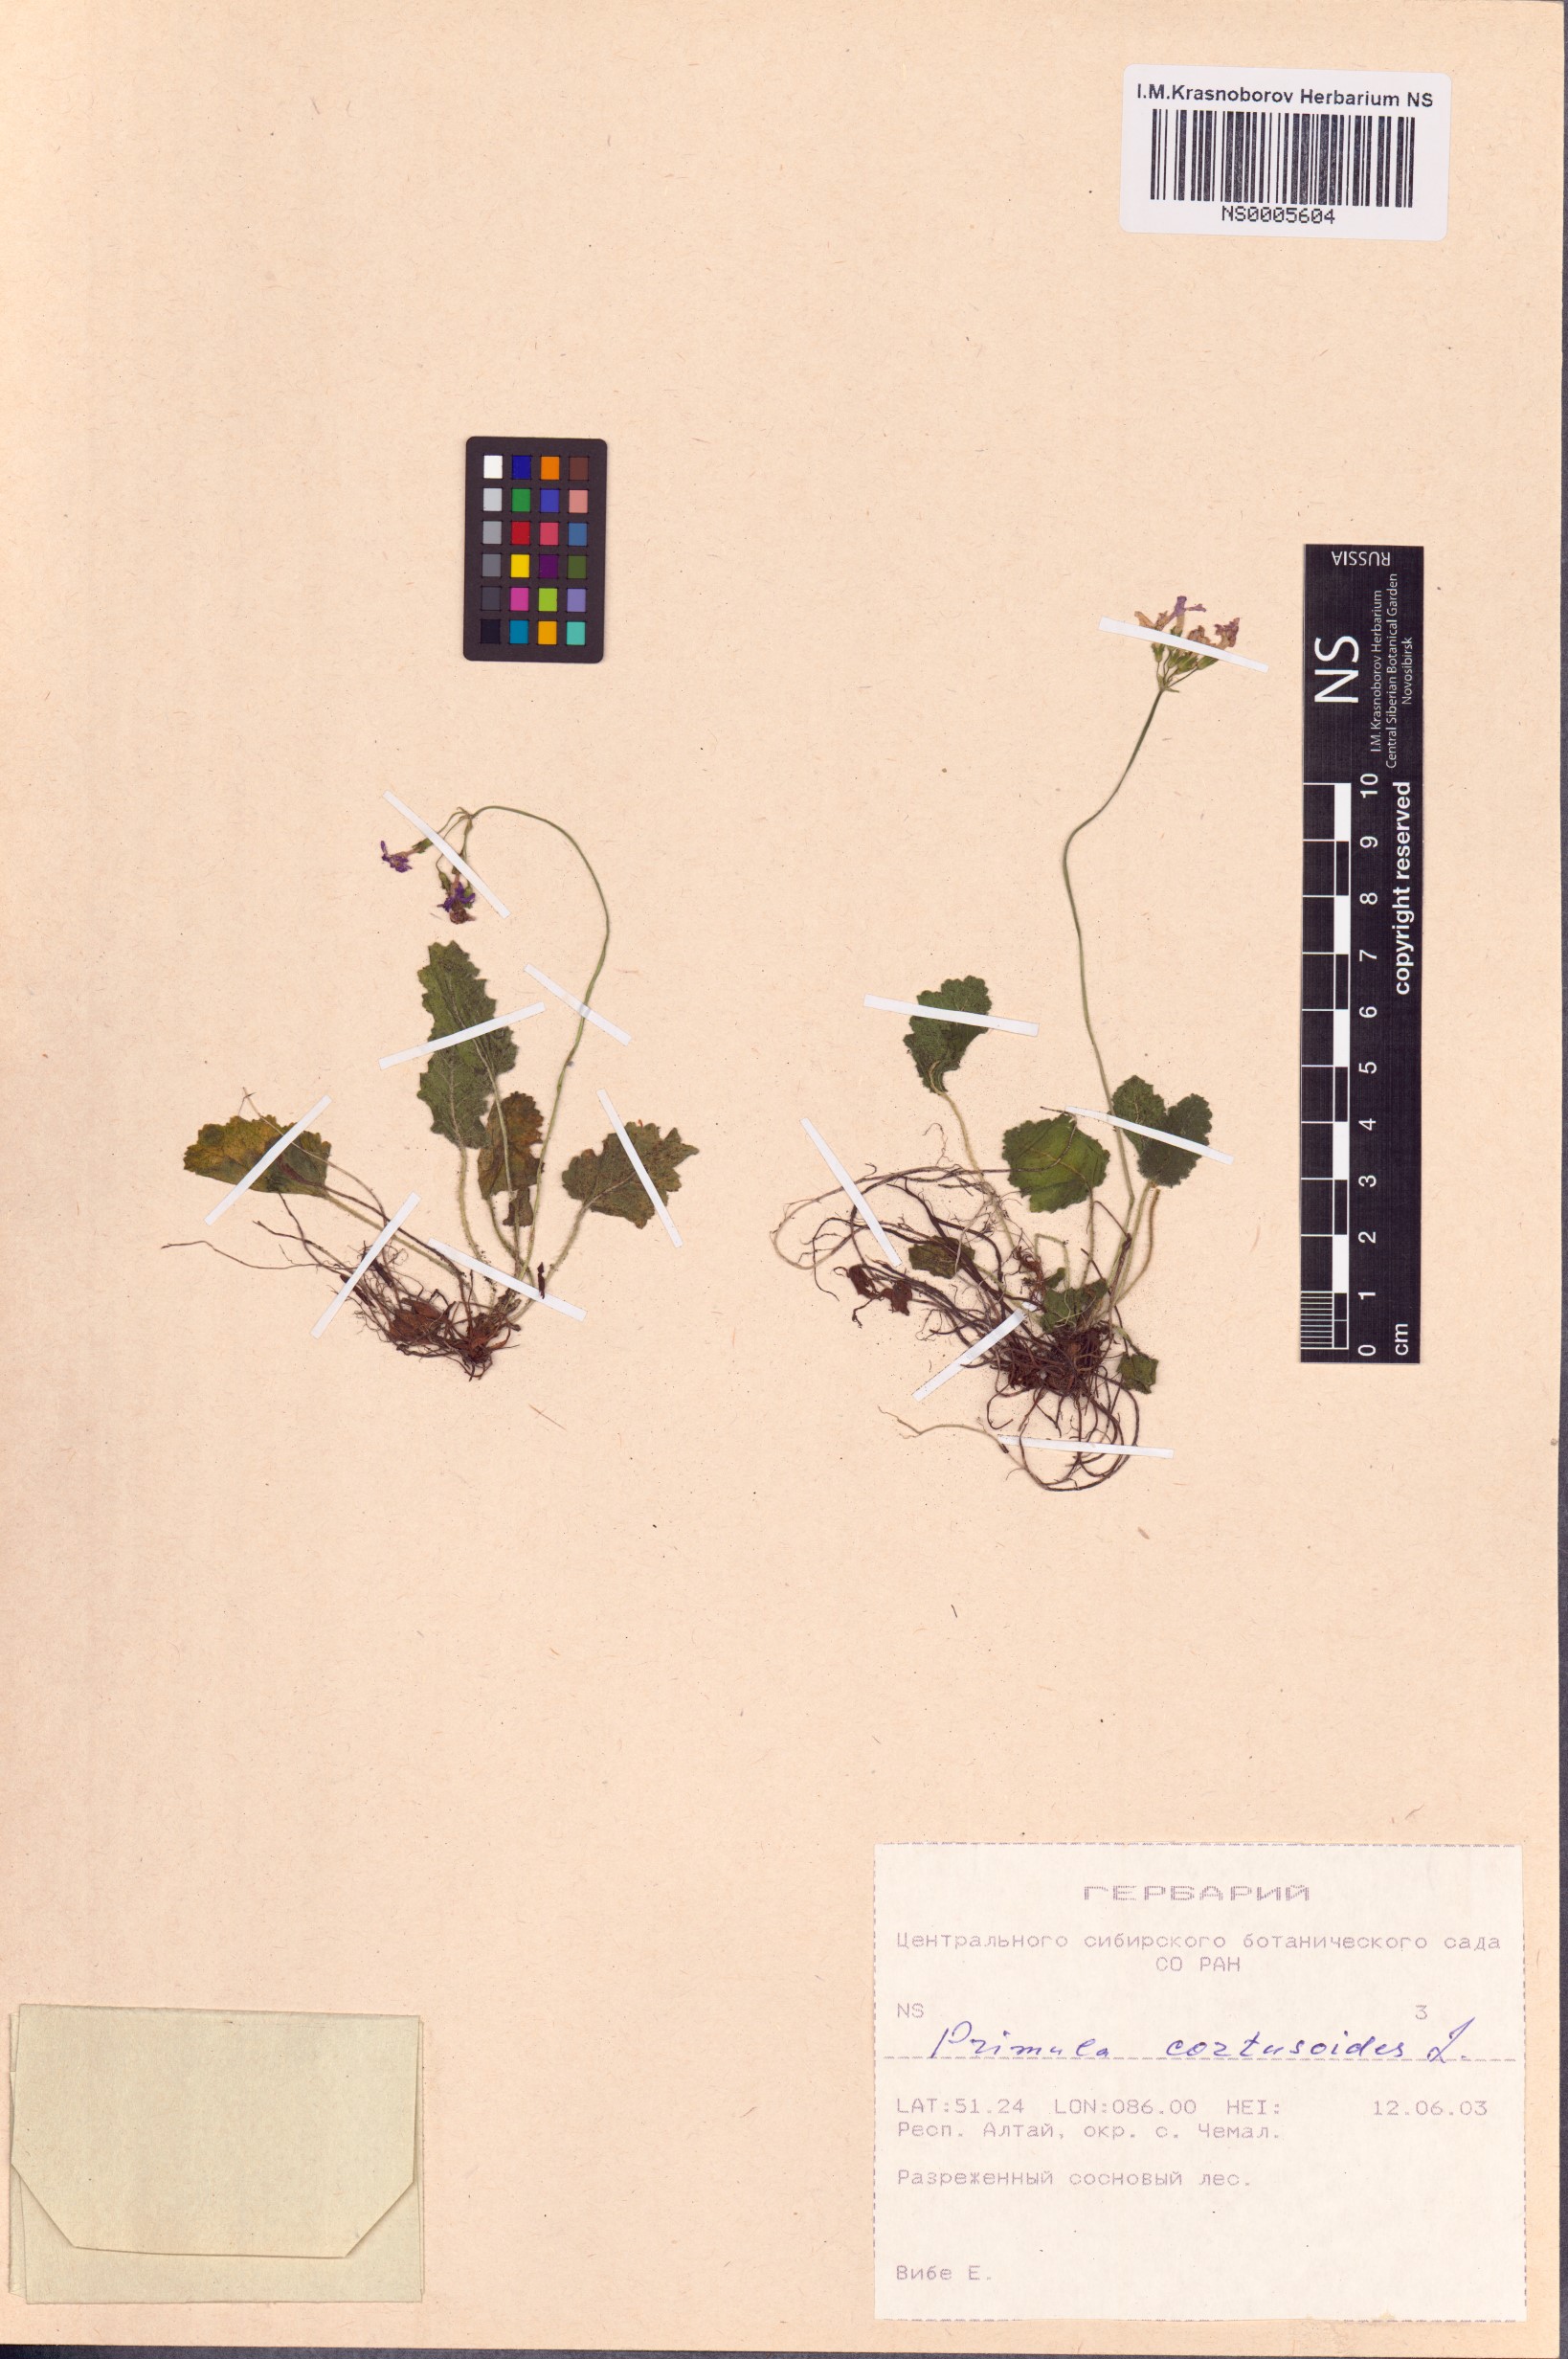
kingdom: Plantae
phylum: Tracheophyta
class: Magnoliopsida
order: Ericales
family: Primulaceae
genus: Primula
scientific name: Primula cortusoides
